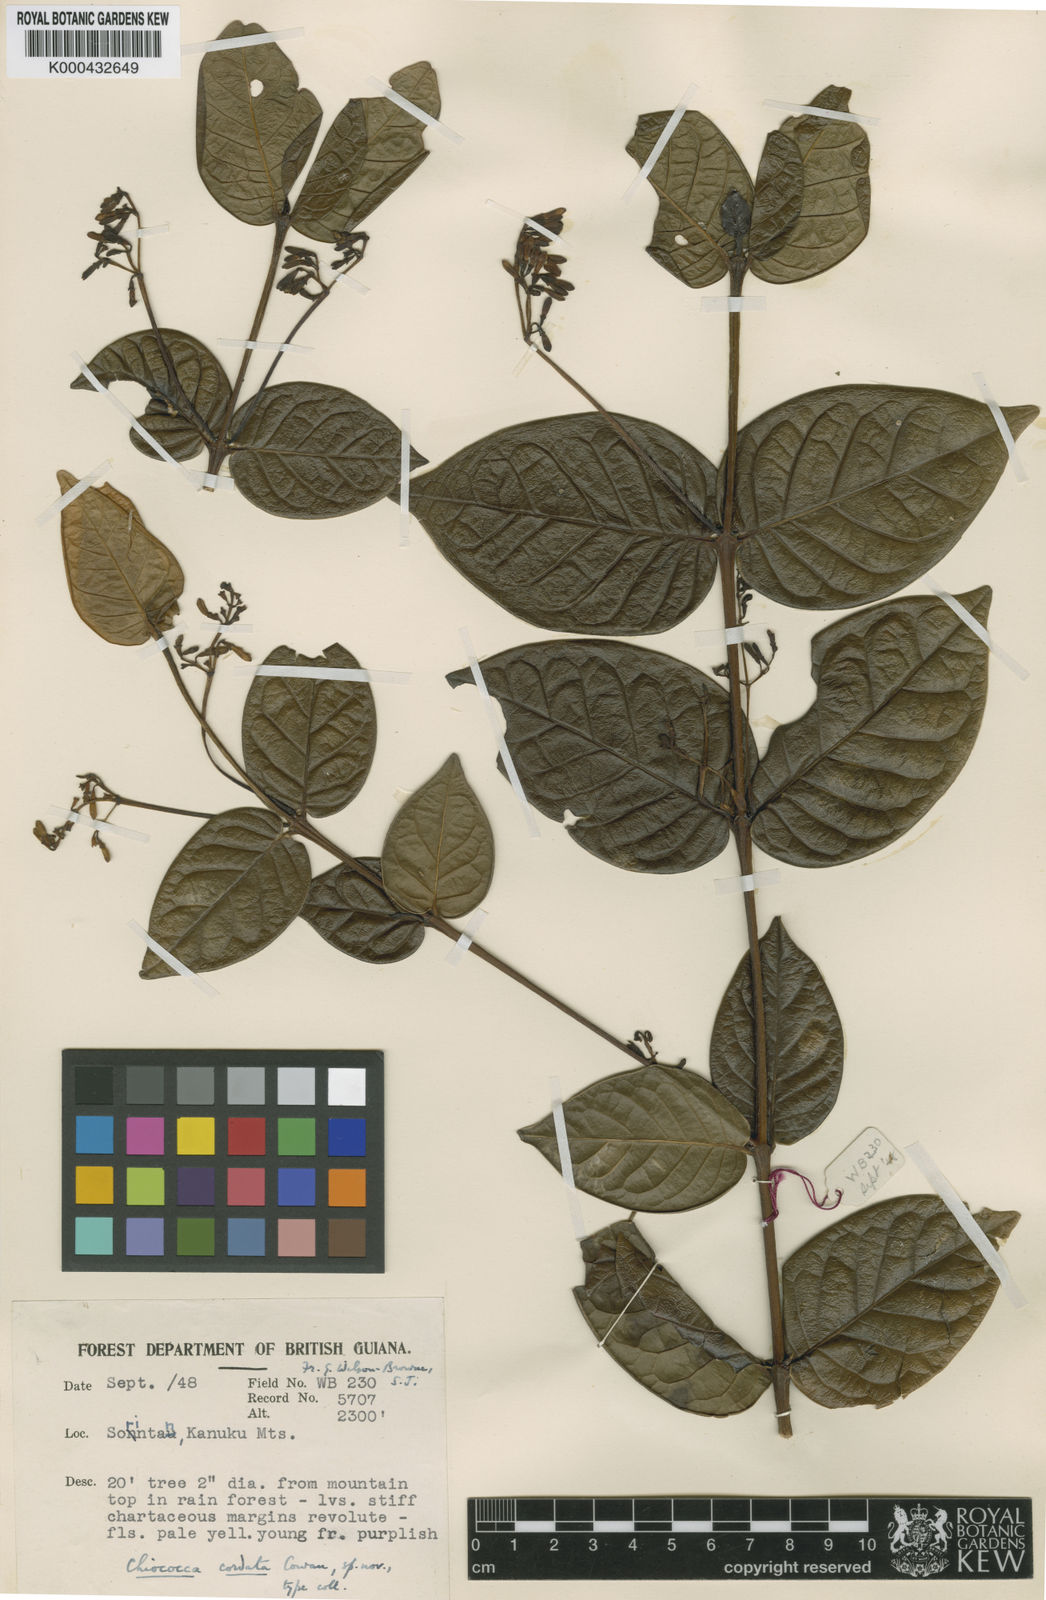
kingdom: Plantae
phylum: Tracheophyta
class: Magnoliopsida
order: Gentianales
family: Rubiaceae
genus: Chiococca
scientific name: Chiococca nitida
